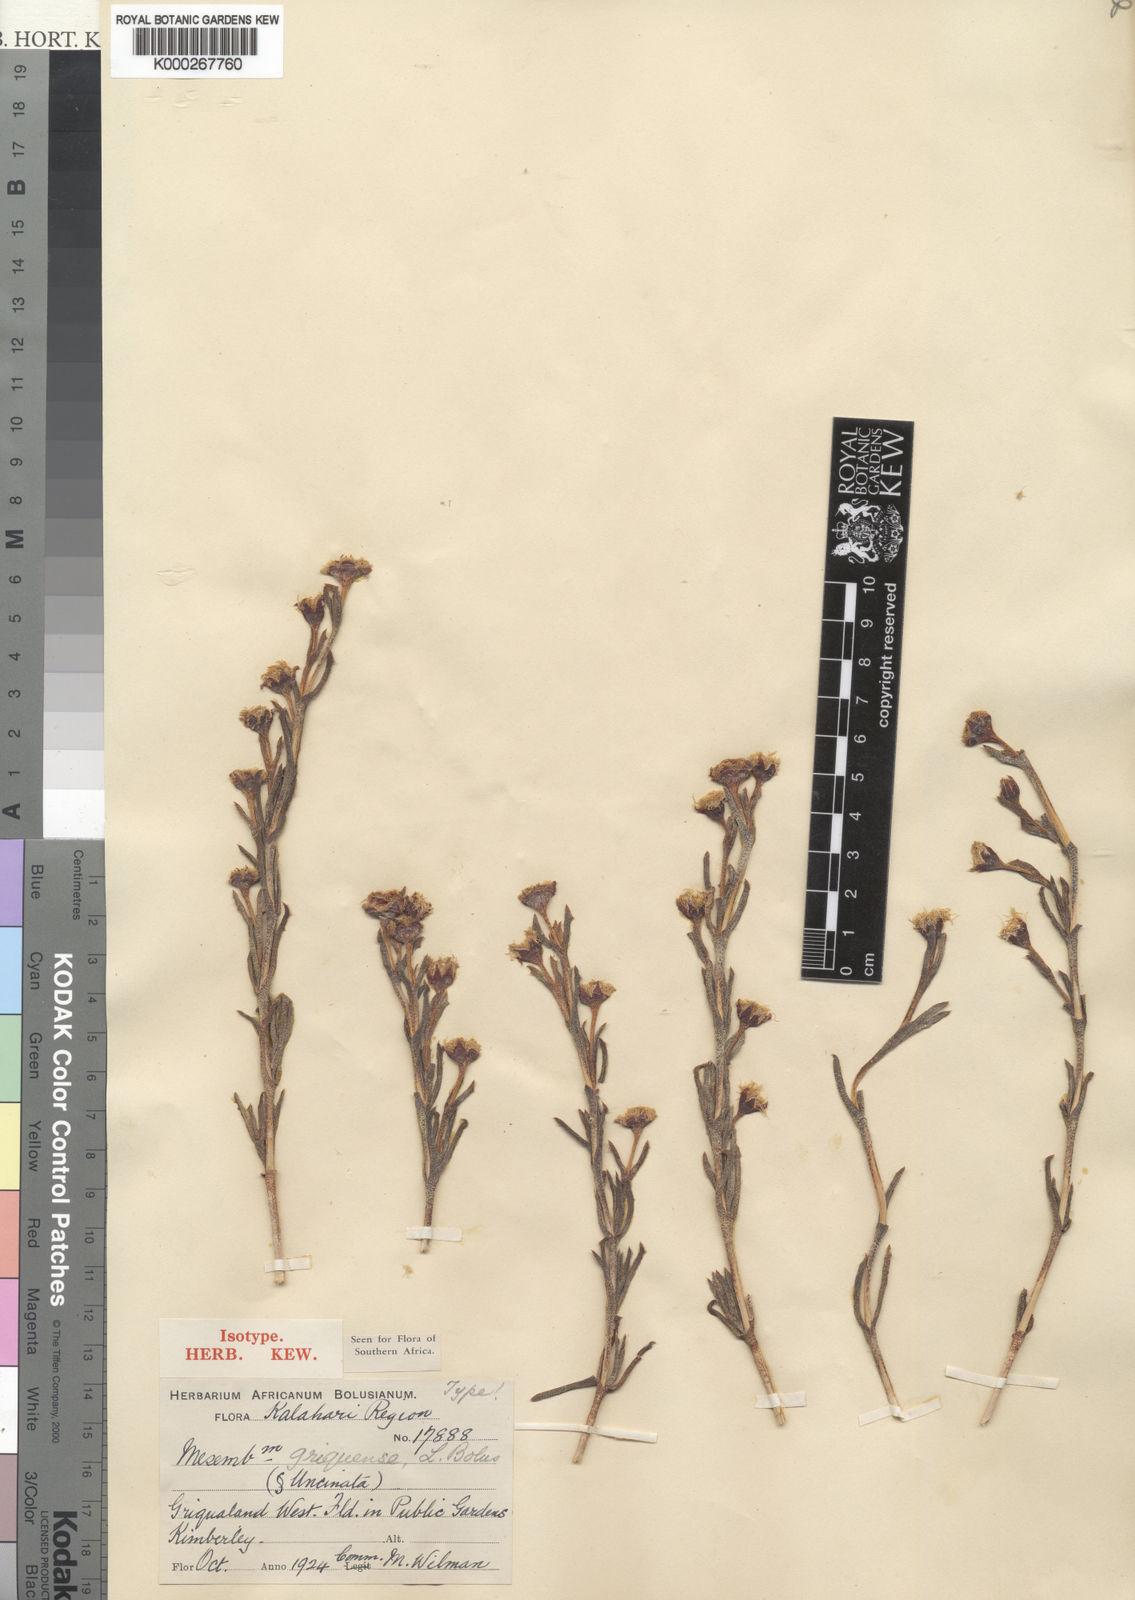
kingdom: Plantae
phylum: Tracheophyta
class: Magnoliopsida
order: Caryophyllales
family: Aizoaceae
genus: Ruschia
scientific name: Ruschia
